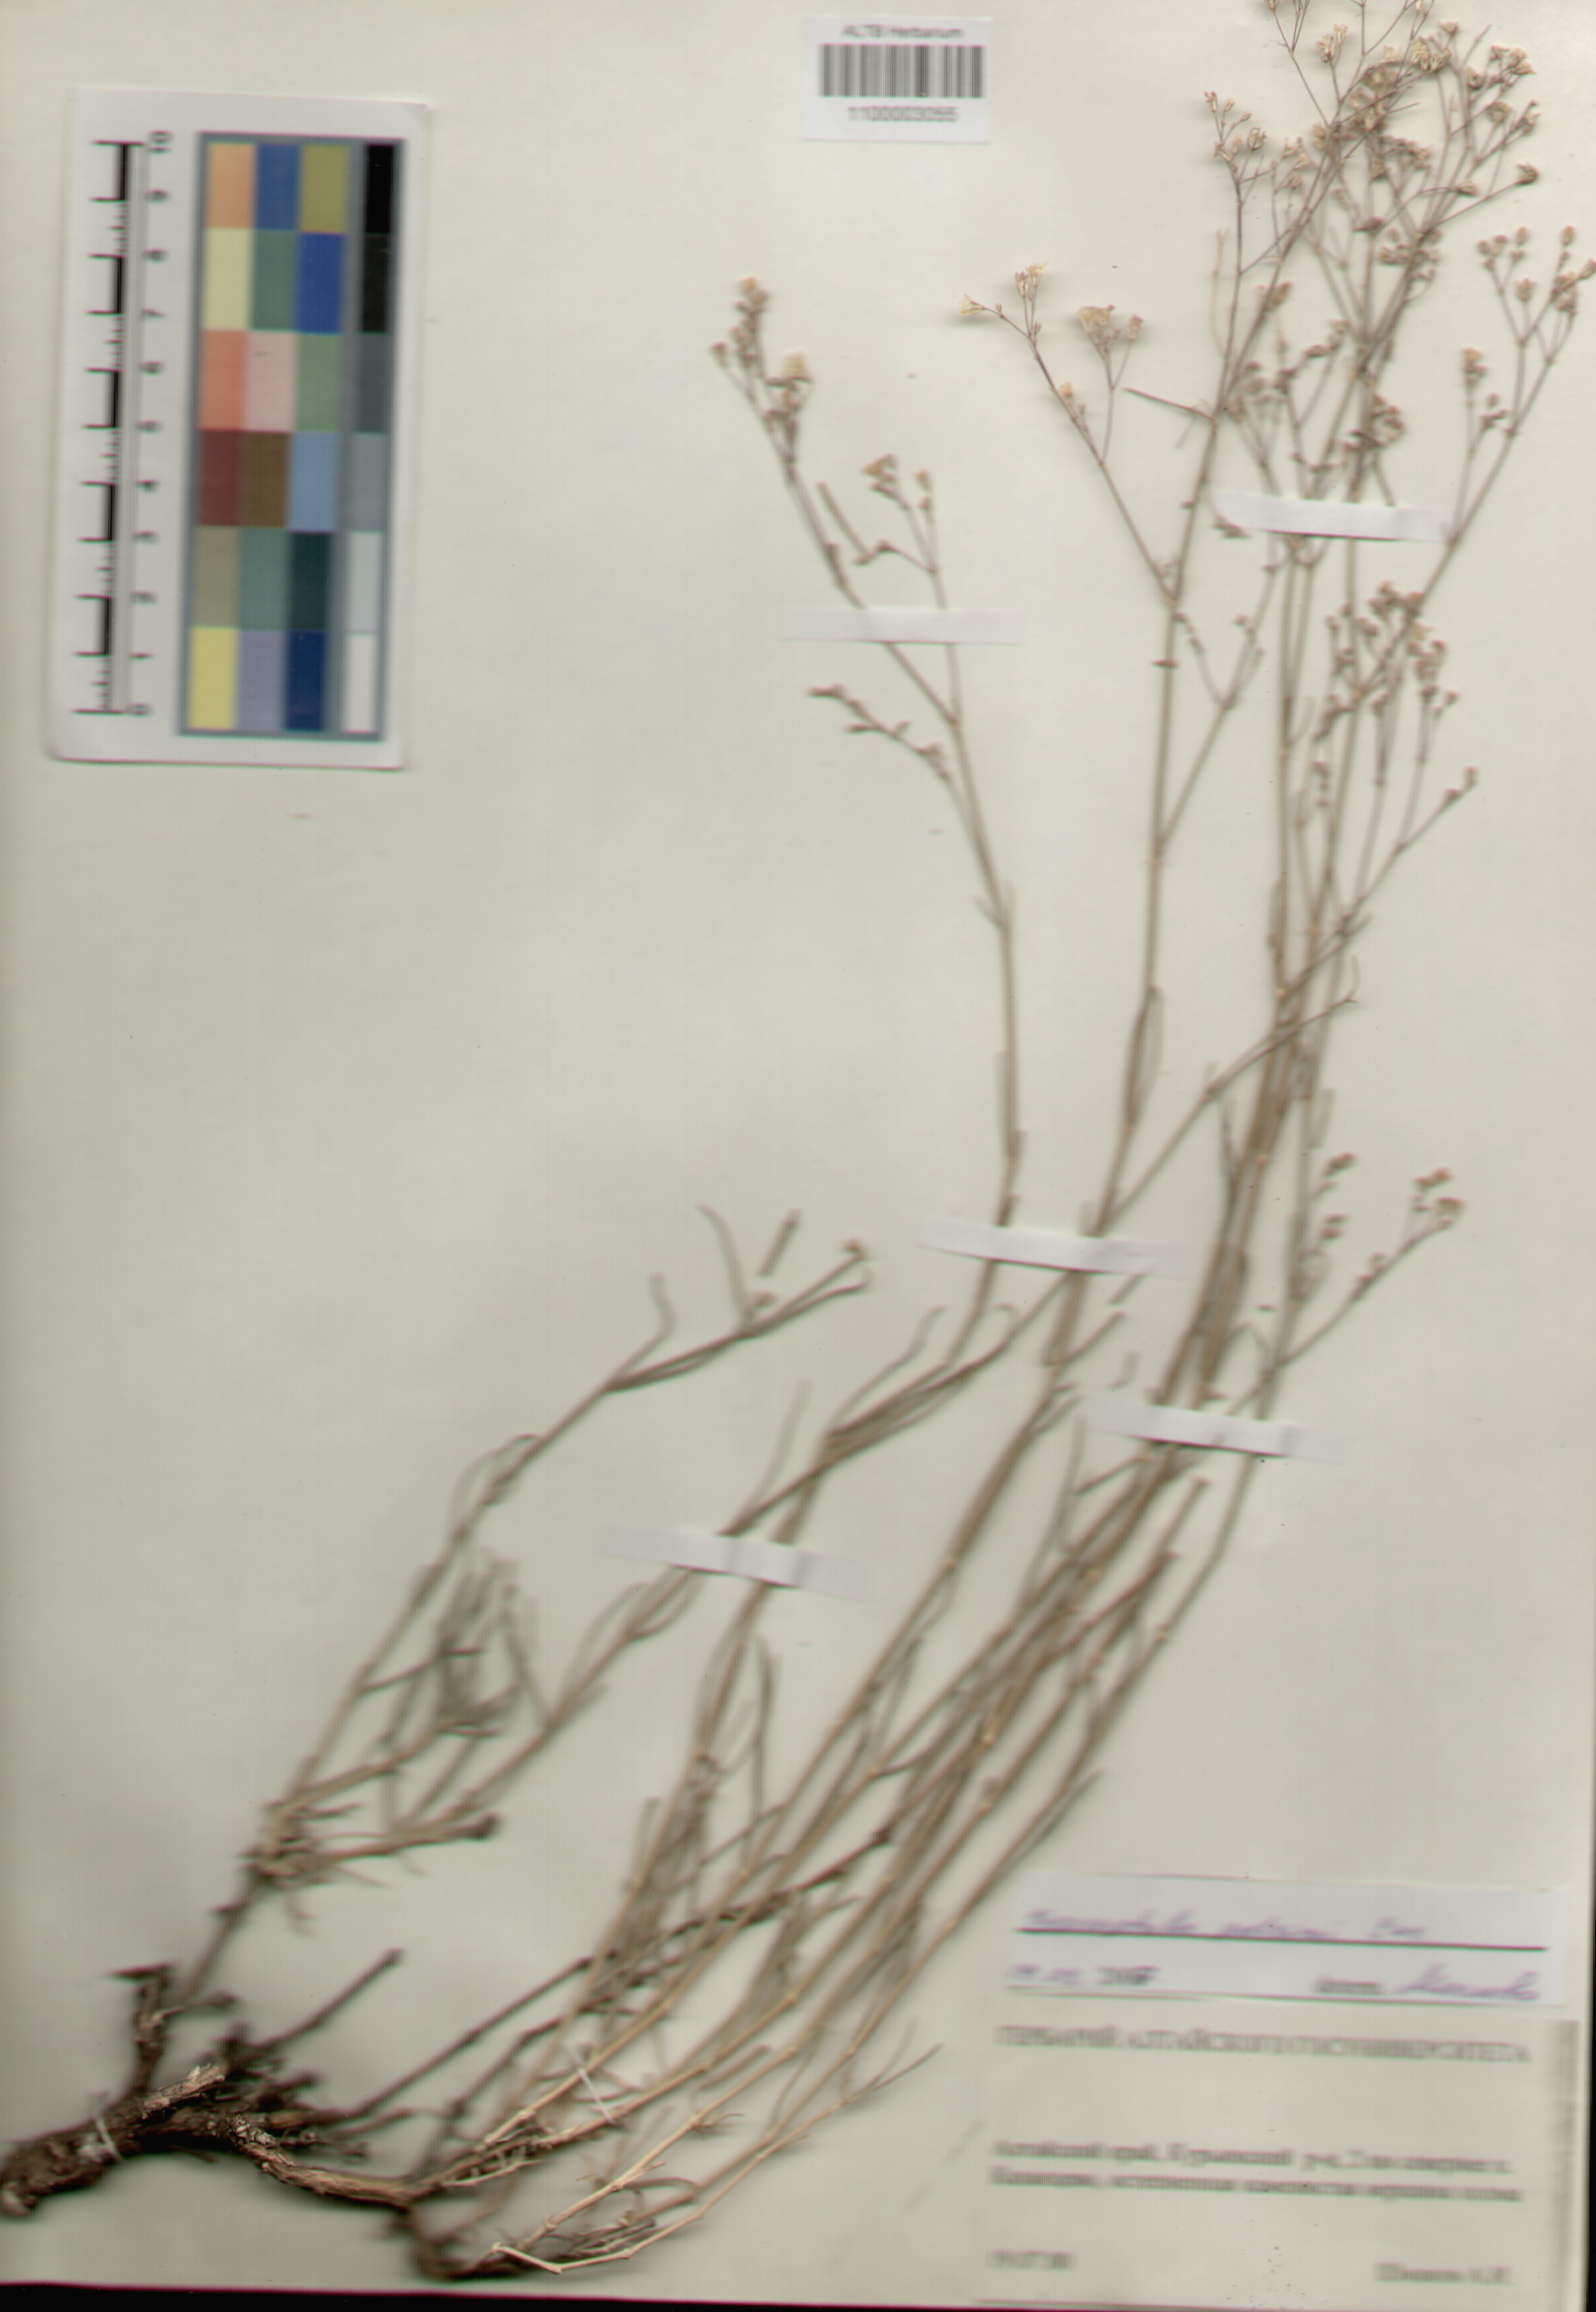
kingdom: Plantae
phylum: Tracheophyta
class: Magnoliopsida
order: Caryophyllales
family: Caryophyllaceae
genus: Gypsophila
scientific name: Gypsophila patrinii
